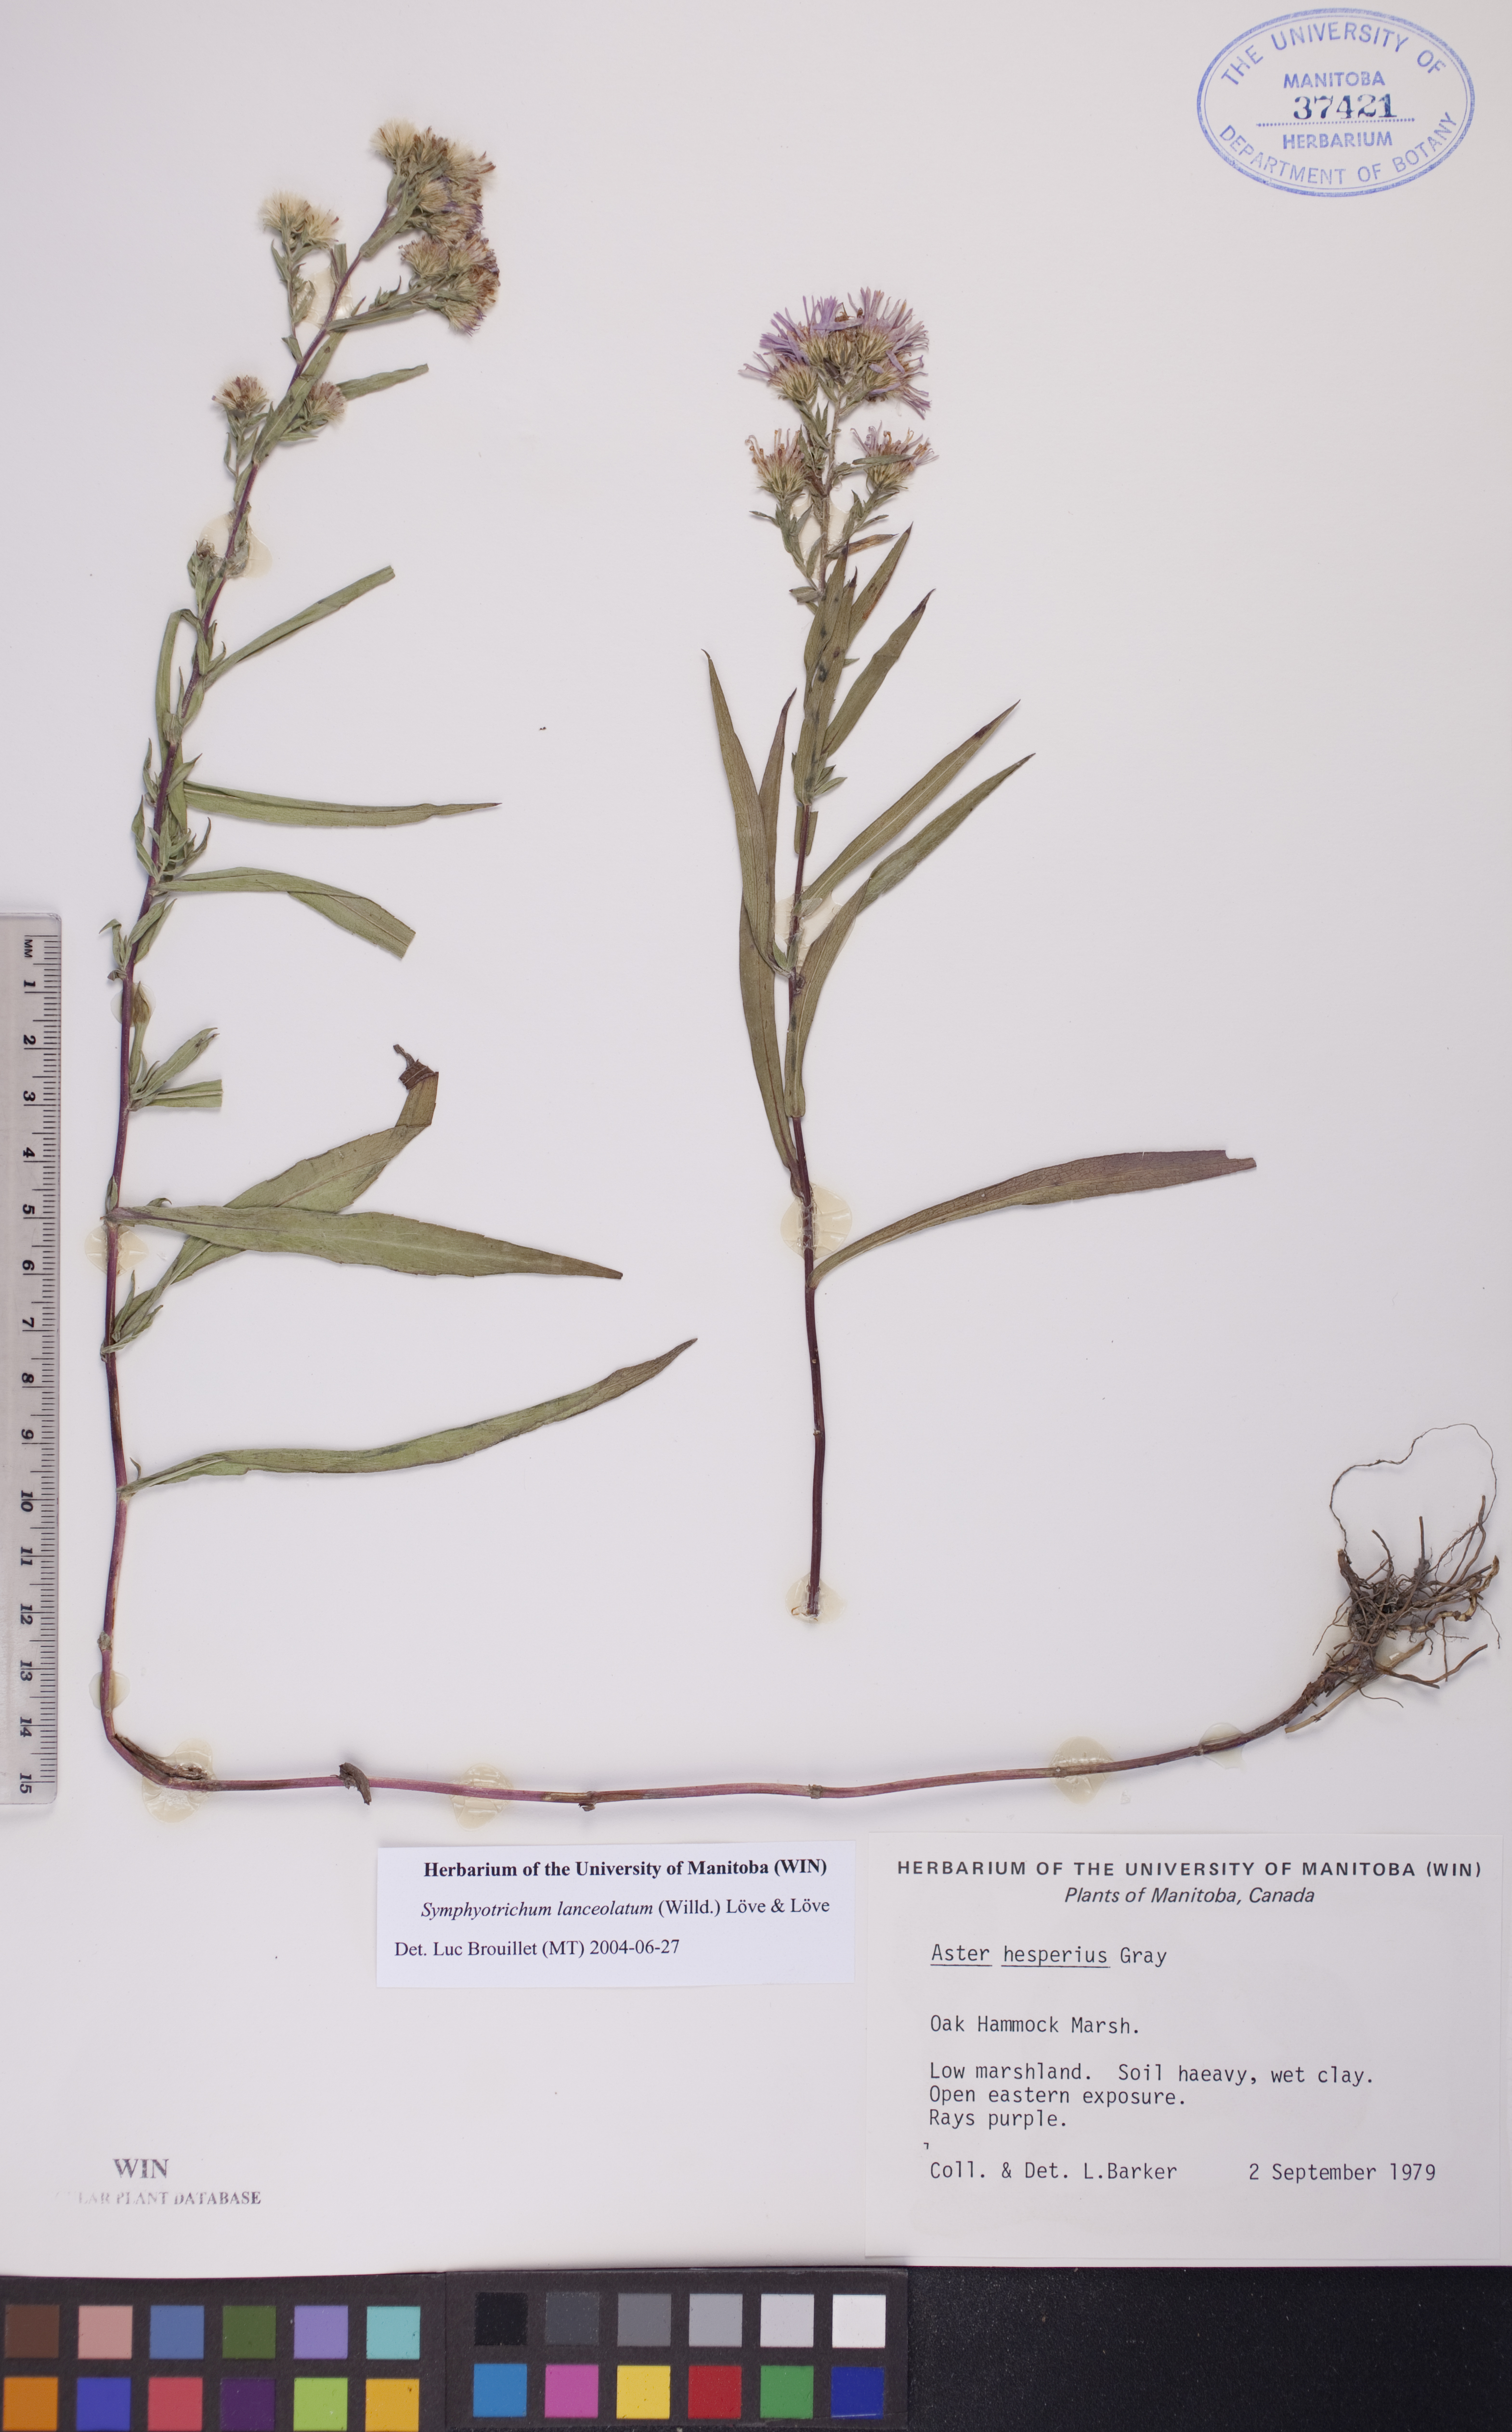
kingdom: Plantae
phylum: Tracheophyta
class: Magnoliopsida
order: Asterales
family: Asteraceae
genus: Symphyotrichum
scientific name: Symphyotrichum lanceolatum
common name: Panicled aster
